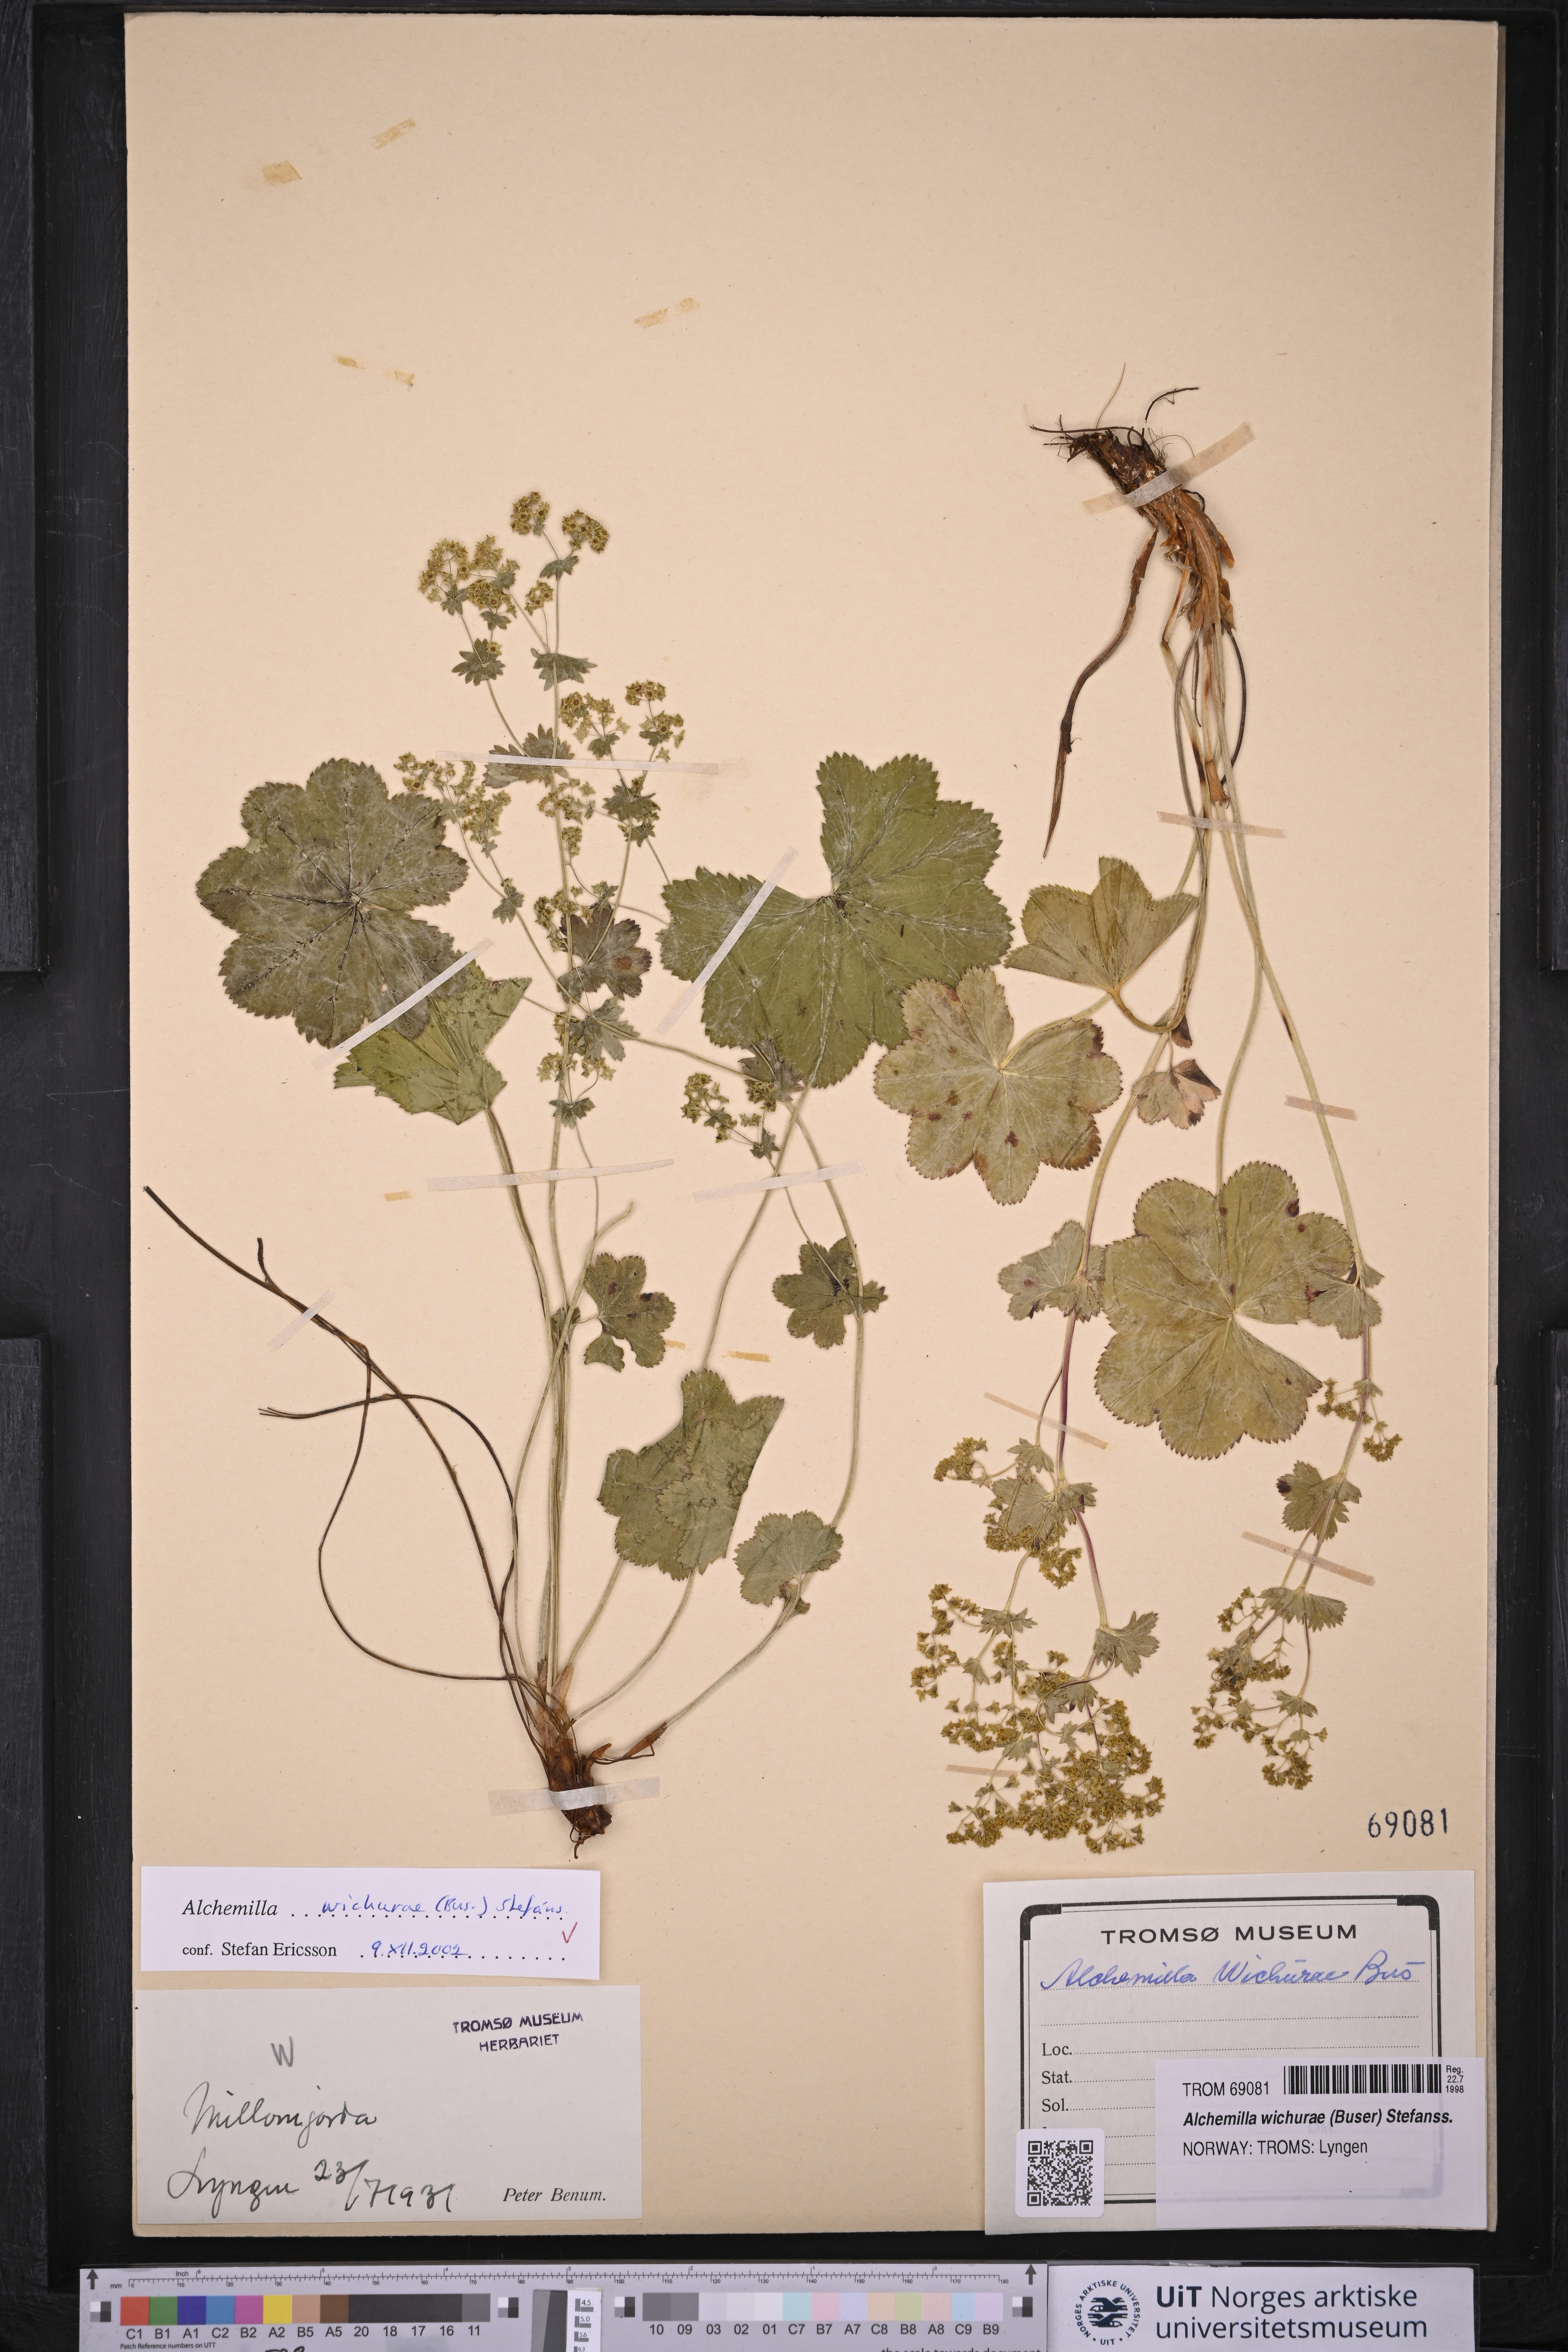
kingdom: Plantae
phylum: Tracheophyta
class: Magnoliopsida
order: Rosales
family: Rosaceae
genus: Alchemilla
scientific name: Alchemilla wichurae
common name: Rock lady's mantle
